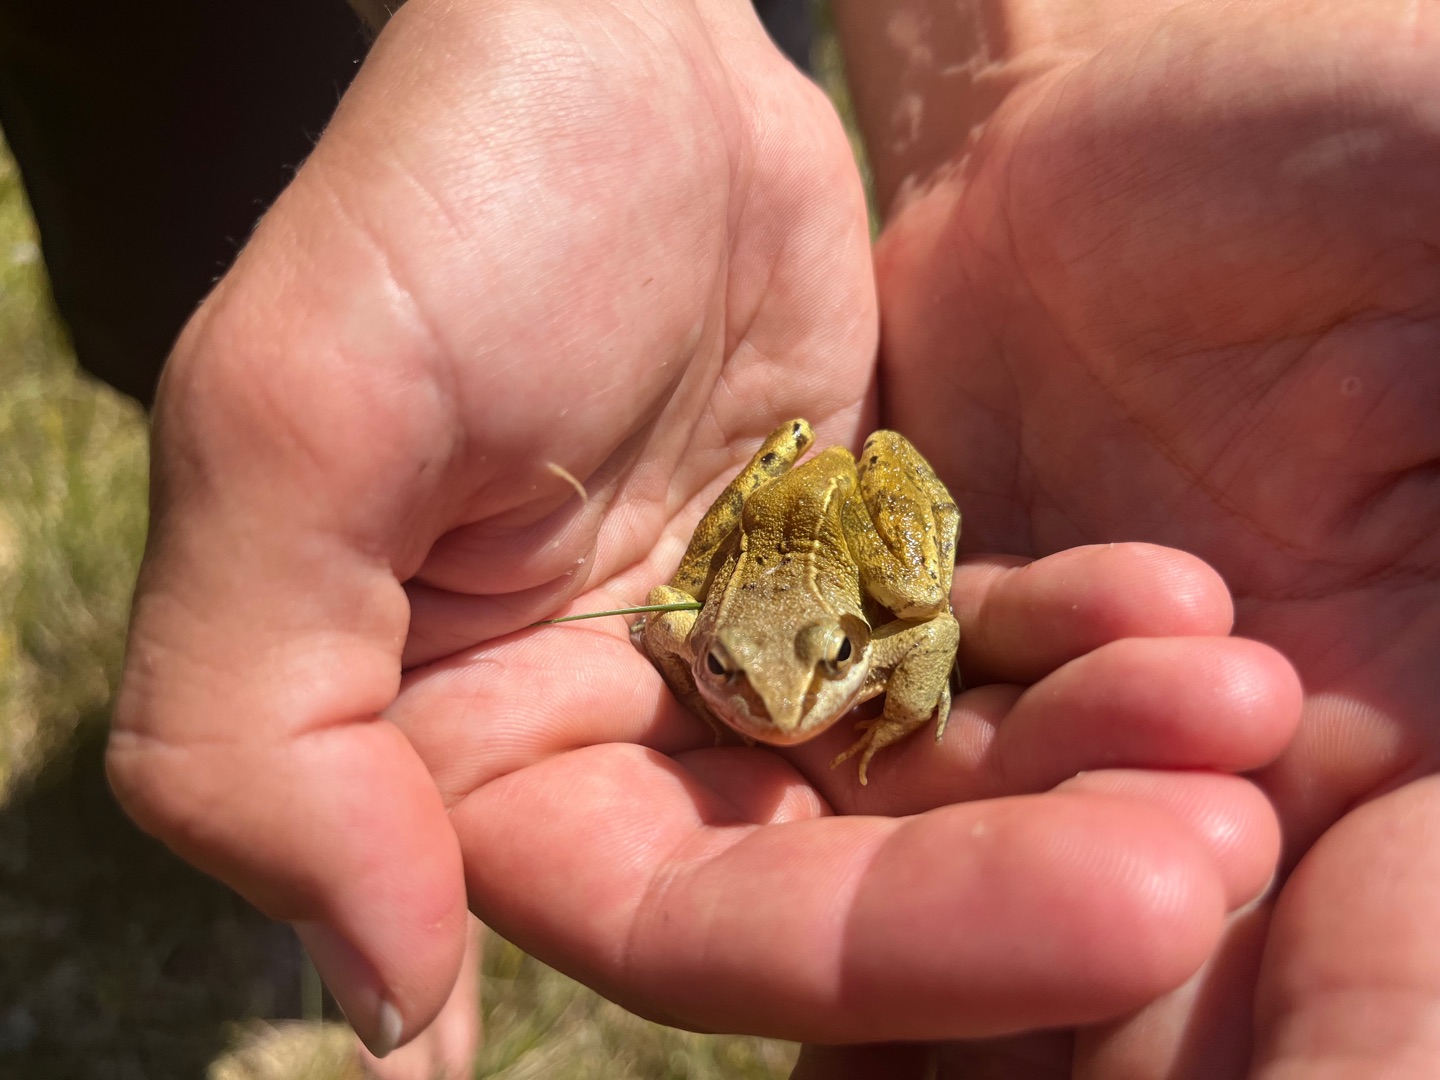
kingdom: Animalia
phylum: Chordata
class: Amphibia
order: Anura
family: Ranidae
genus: Rana
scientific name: Rana arvalis
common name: Spidssnudet frø
